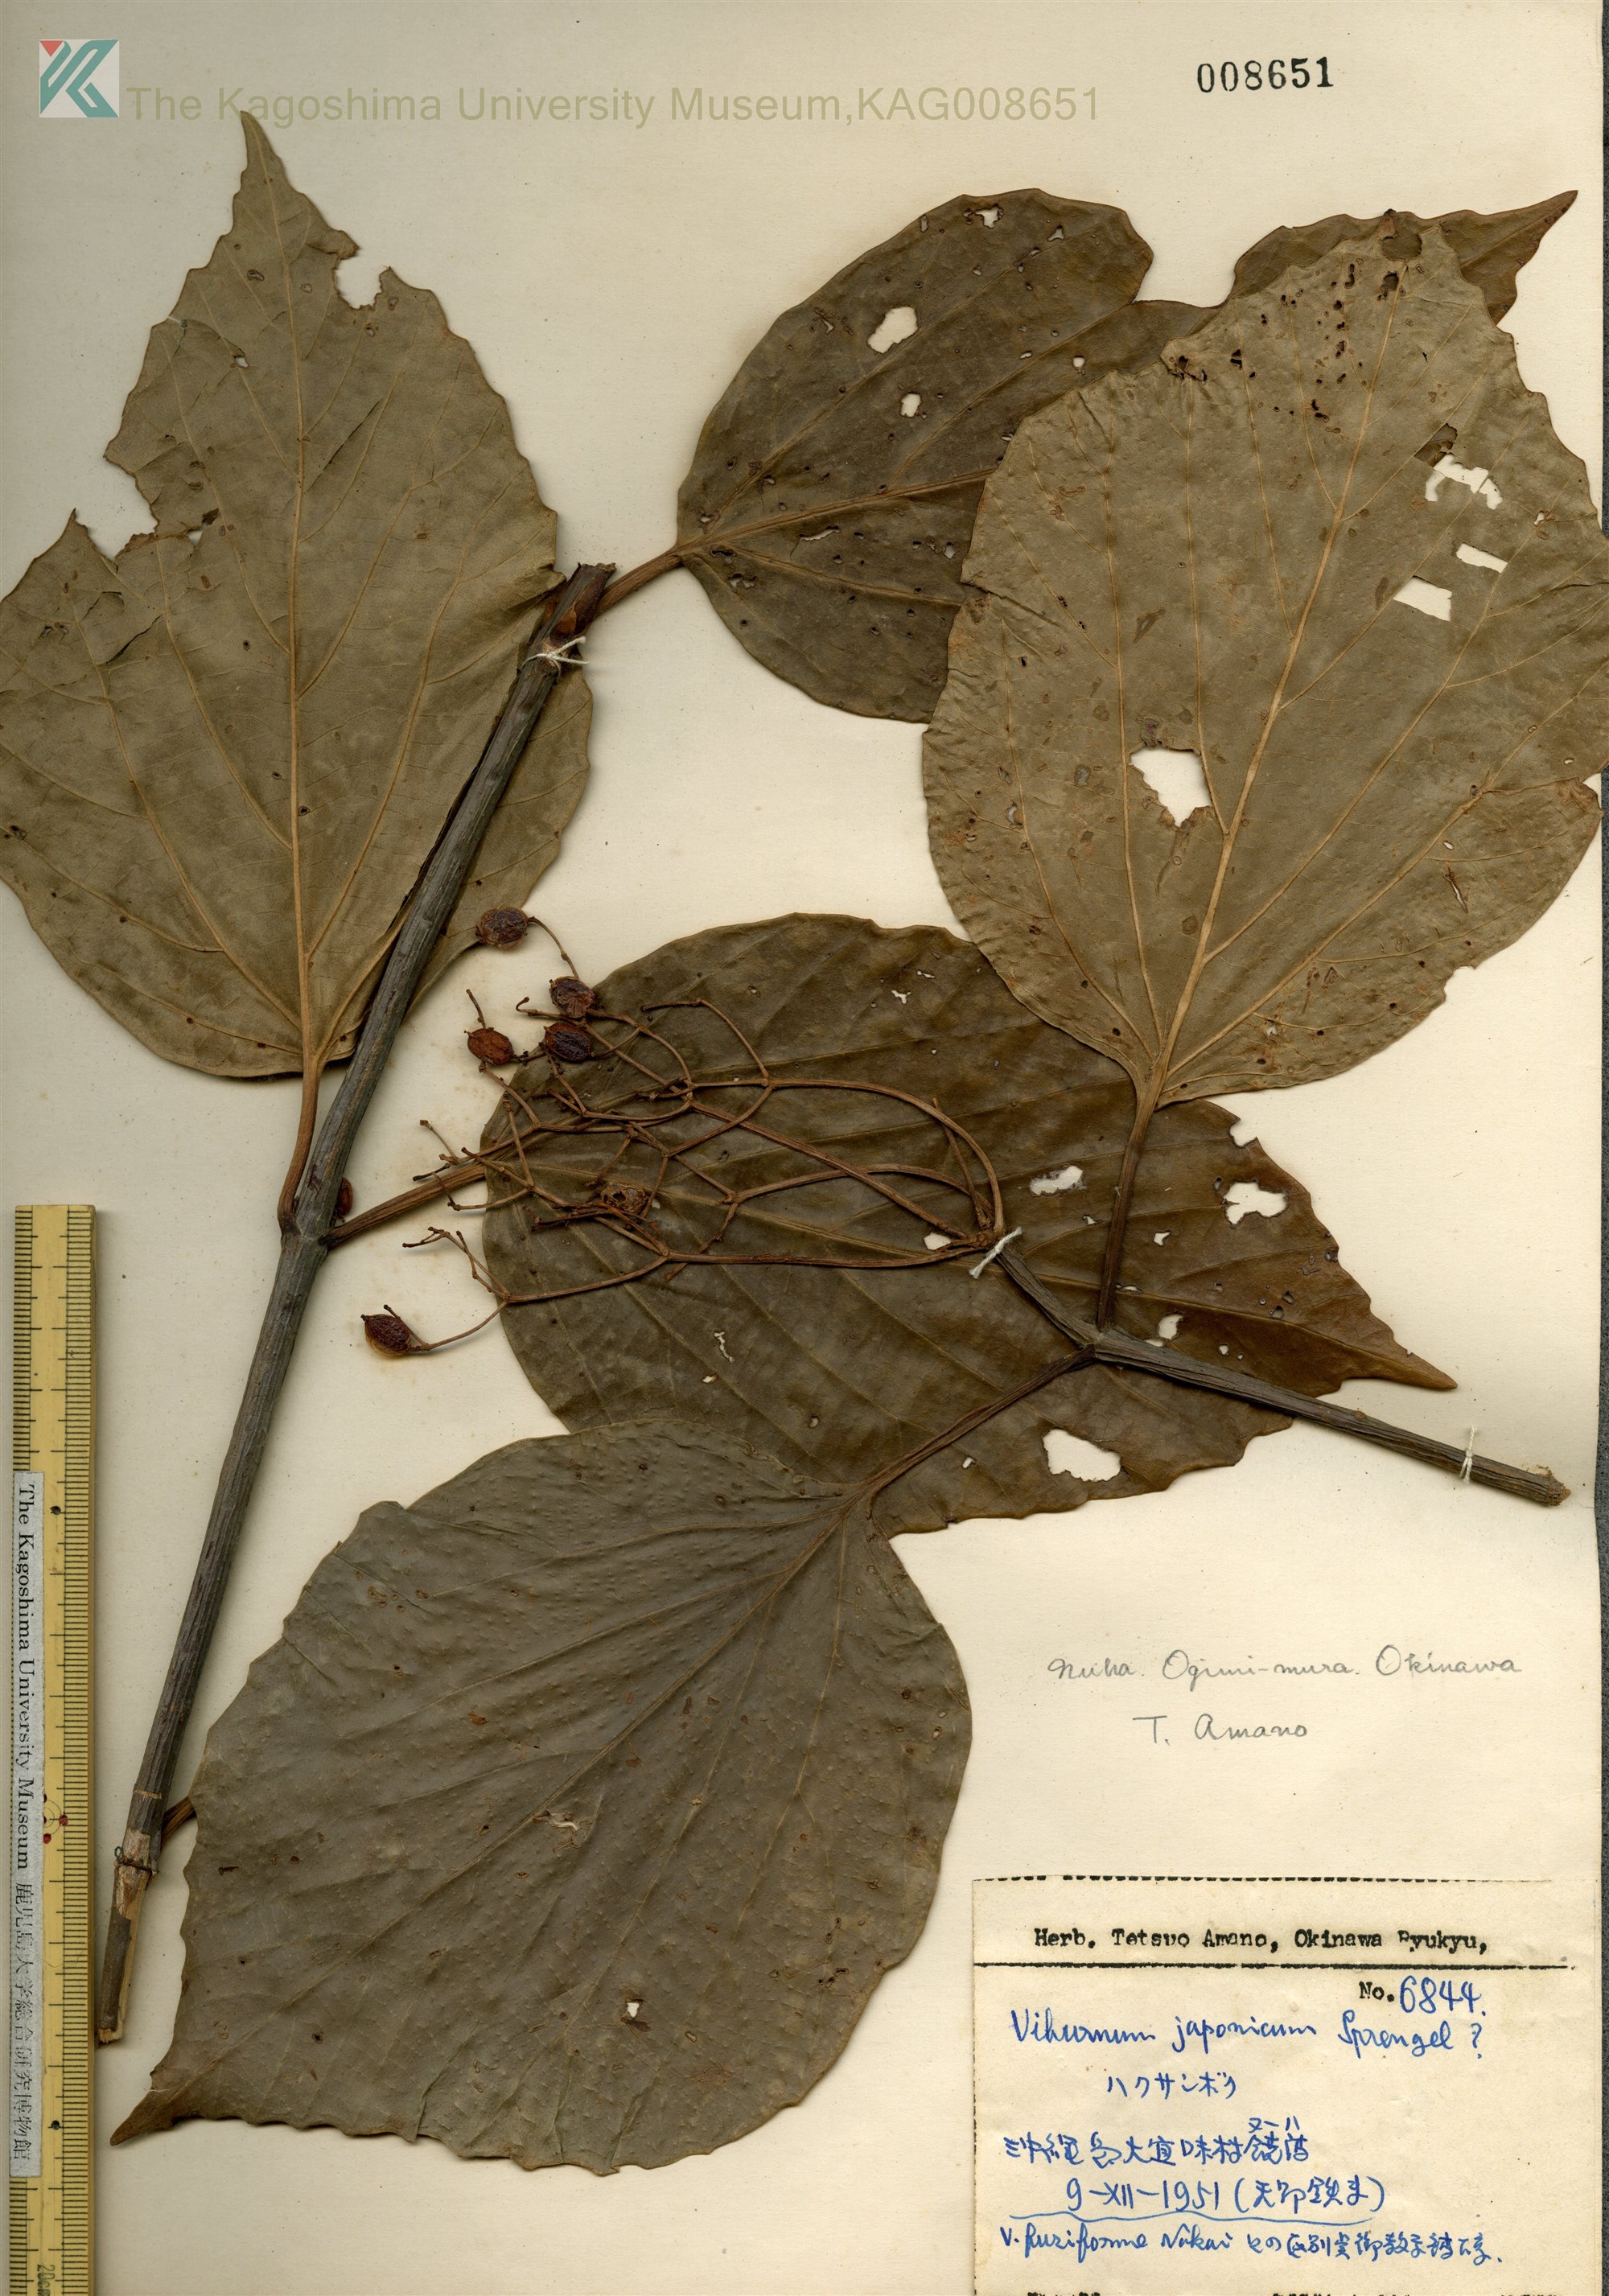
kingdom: Plantae
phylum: Tracheophyta
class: Magnoliopsida
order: Dipsacales
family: Viburnaceae
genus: Viburnum
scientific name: Viburnum japonicum
